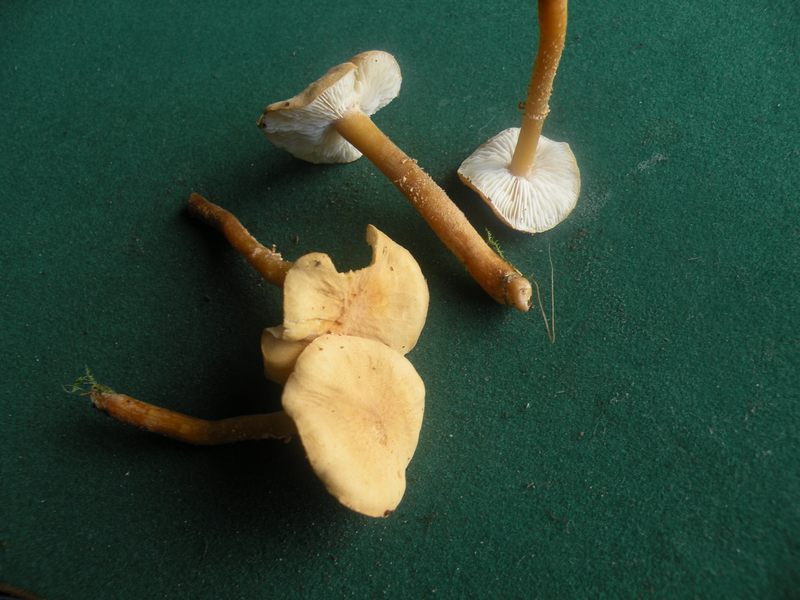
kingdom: Fungi
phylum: Basidiomycota
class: Agaricomycetes
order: Agaricales
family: Tricholomataceae
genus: Cystoderma
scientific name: Cystoderma amianthinum
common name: okkergul grynhat
